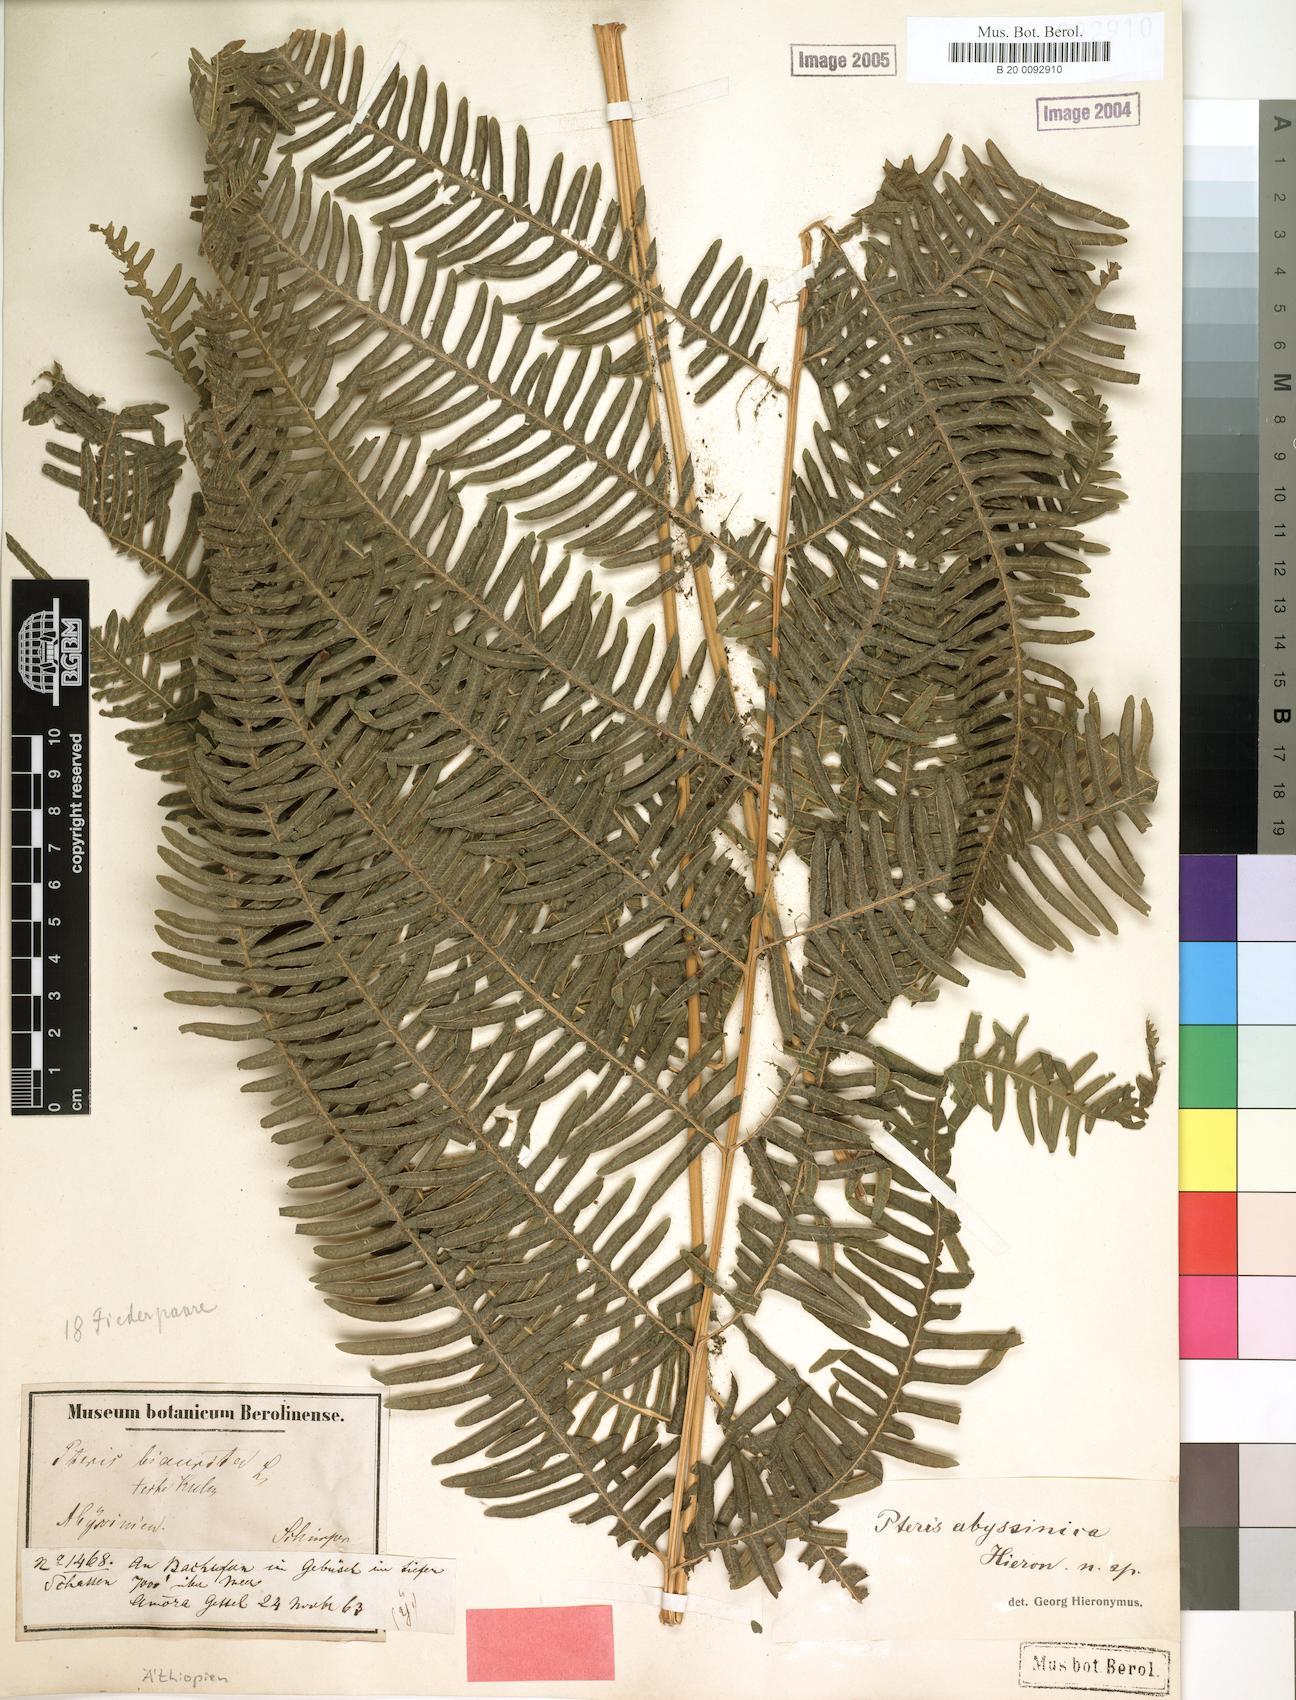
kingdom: Plantae
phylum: Tracheophyta
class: Polypodiopsida
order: Polypodiales
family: Pteridaceae
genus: Pteris
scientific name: Pteris catoptera
